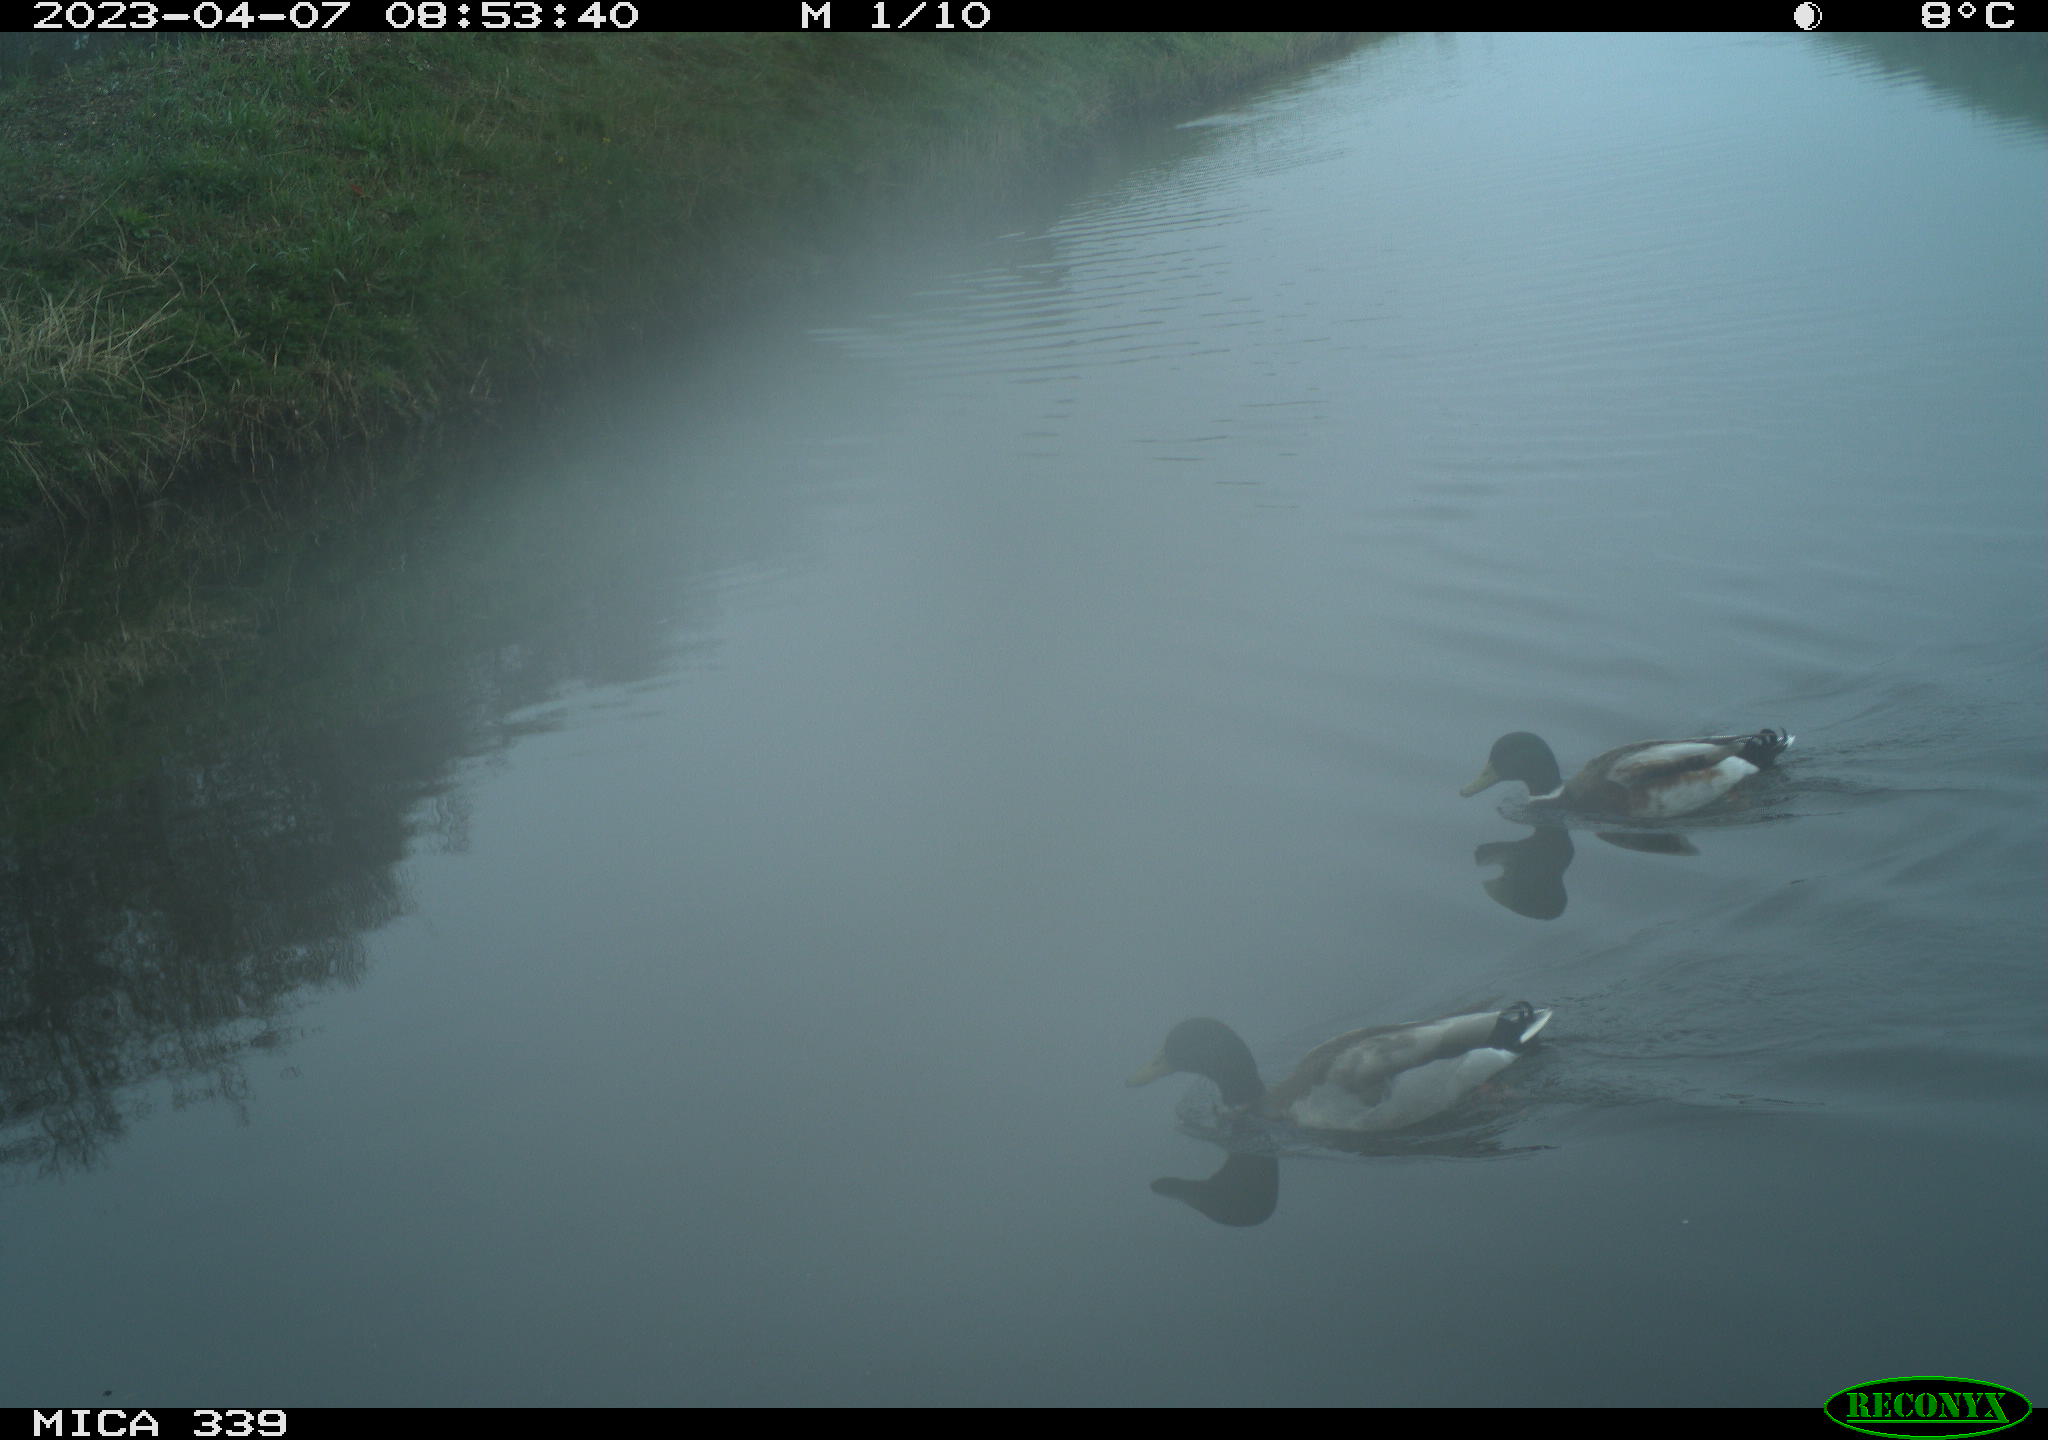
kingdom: Animalia
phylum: Chordata
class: Aves
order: Anseriformes
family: Anatidae
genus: Anas
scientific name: Anas platyrhynchos
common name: Mallard
